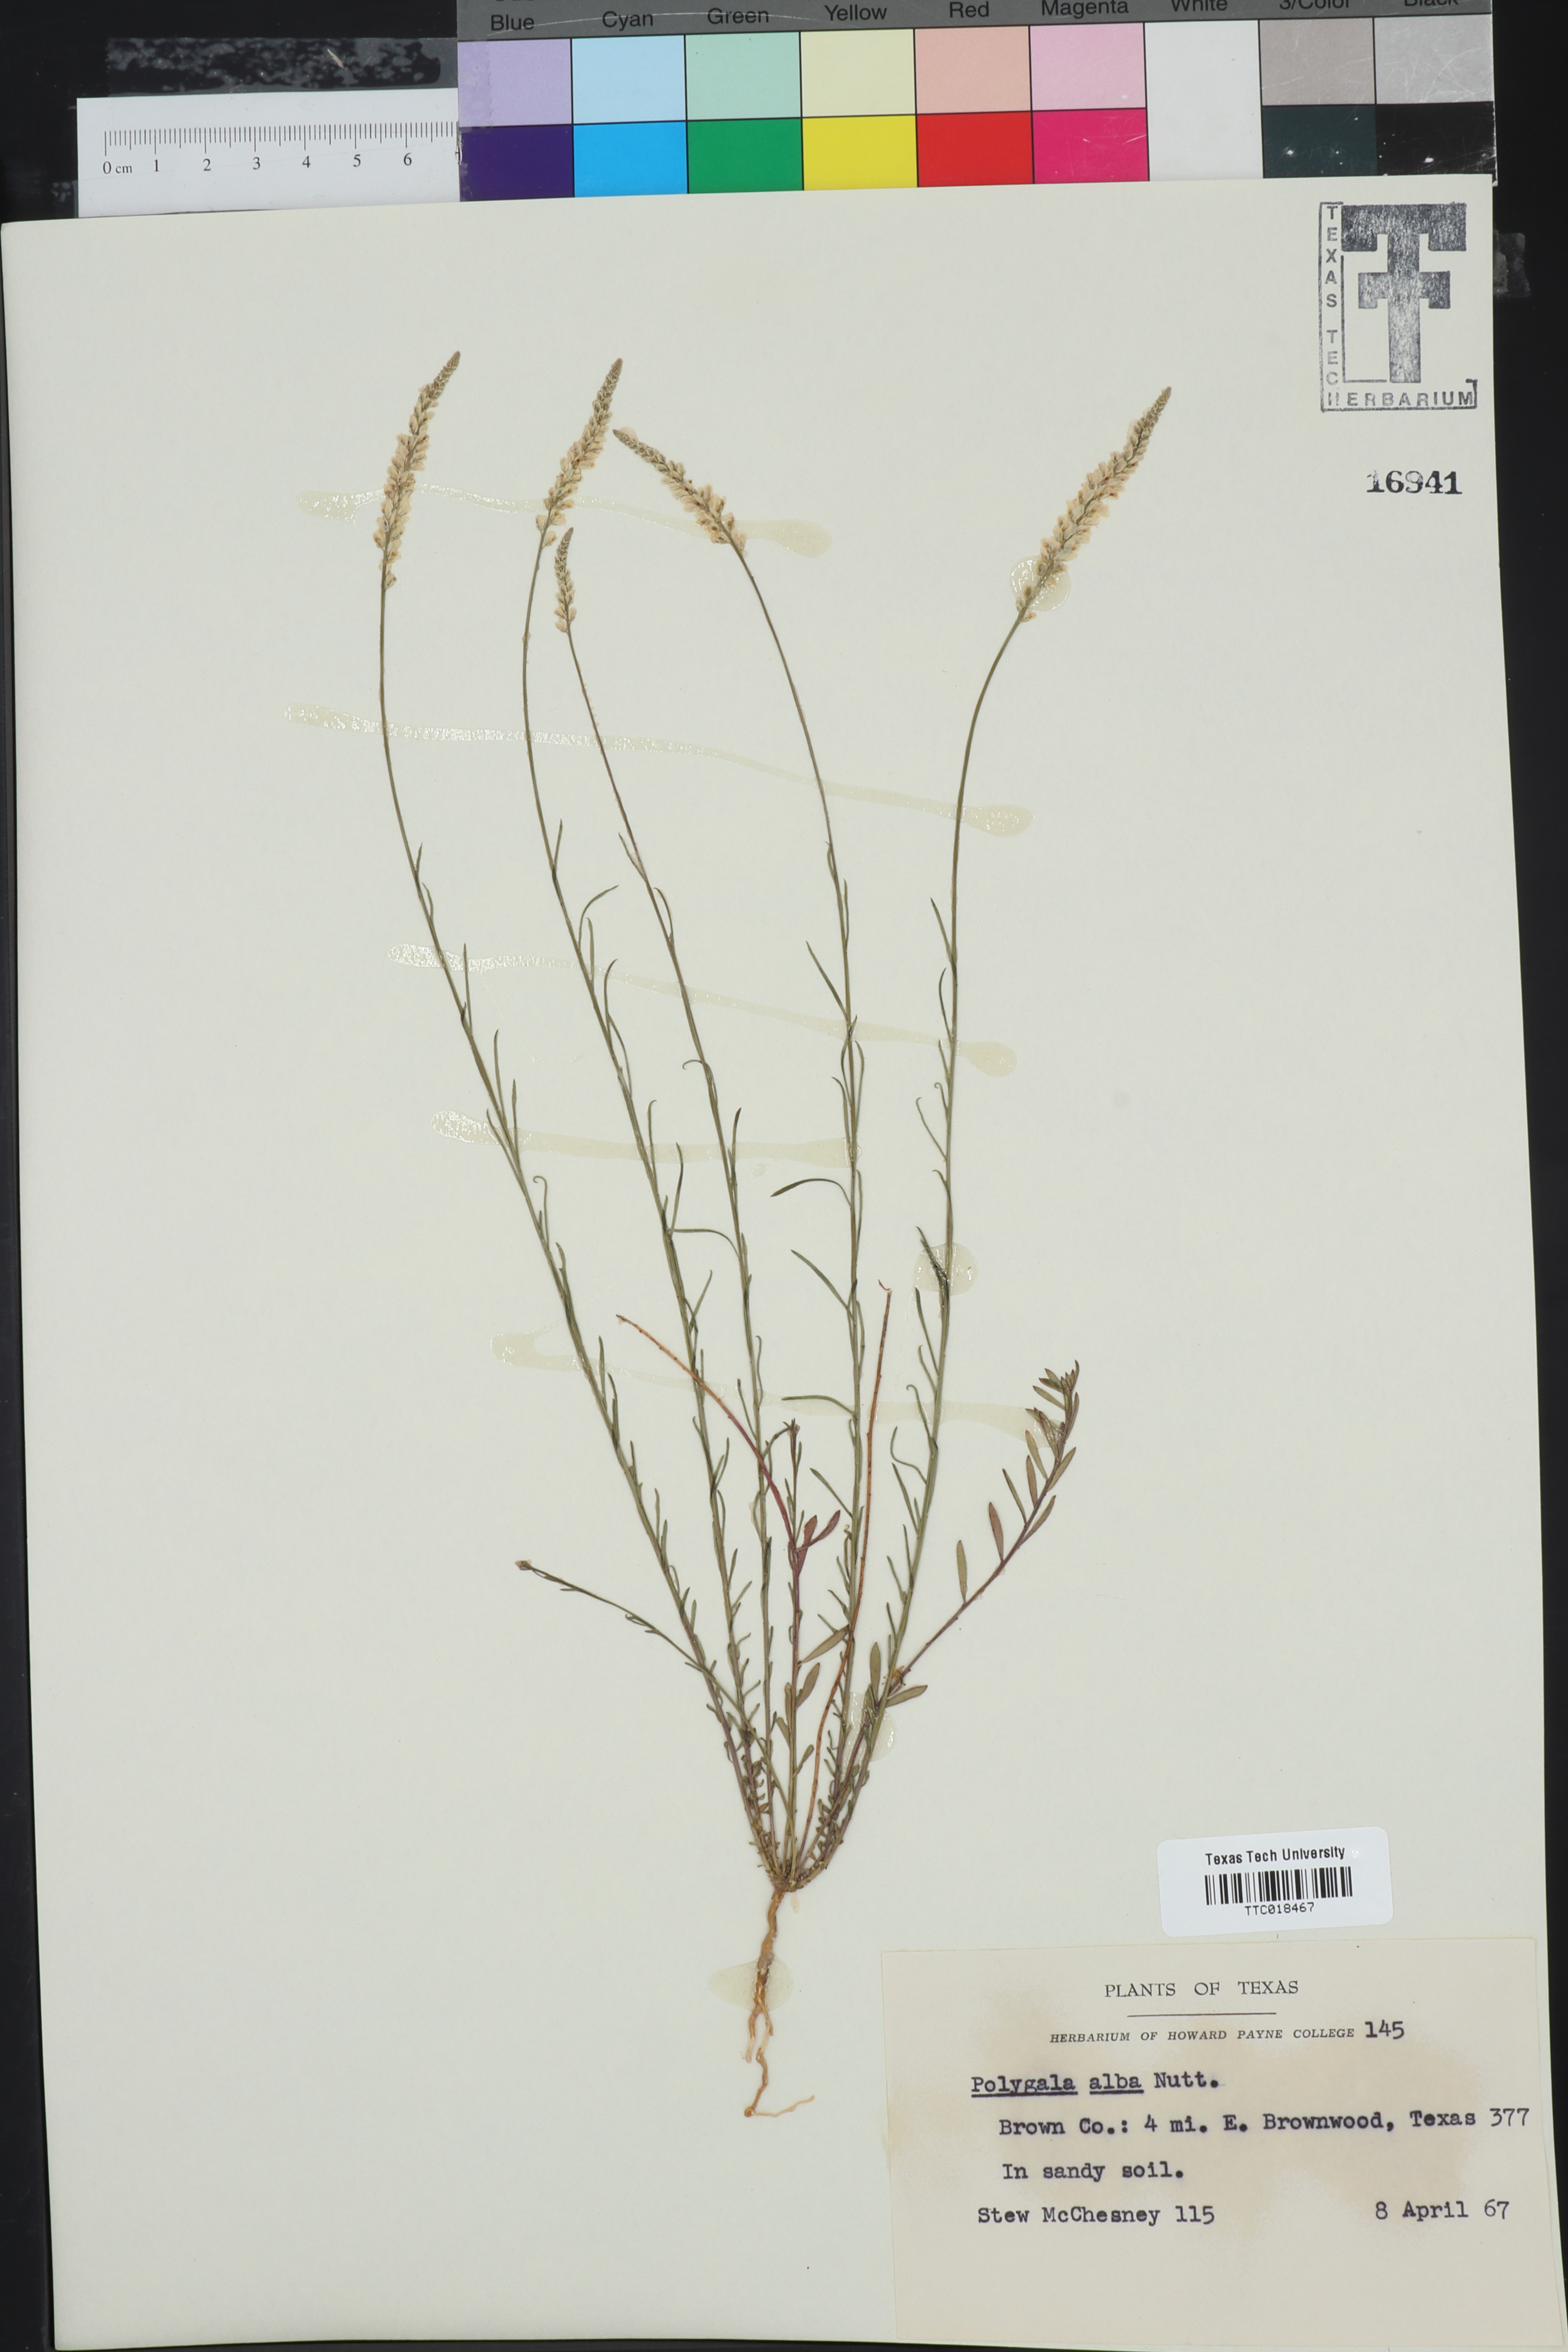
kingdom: Plantae
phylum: Tracheophyta
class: Magnoliopsida
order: Fabales
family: Polygalaceae
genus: Polygala
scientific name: Polygala alba
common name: White milkwort
